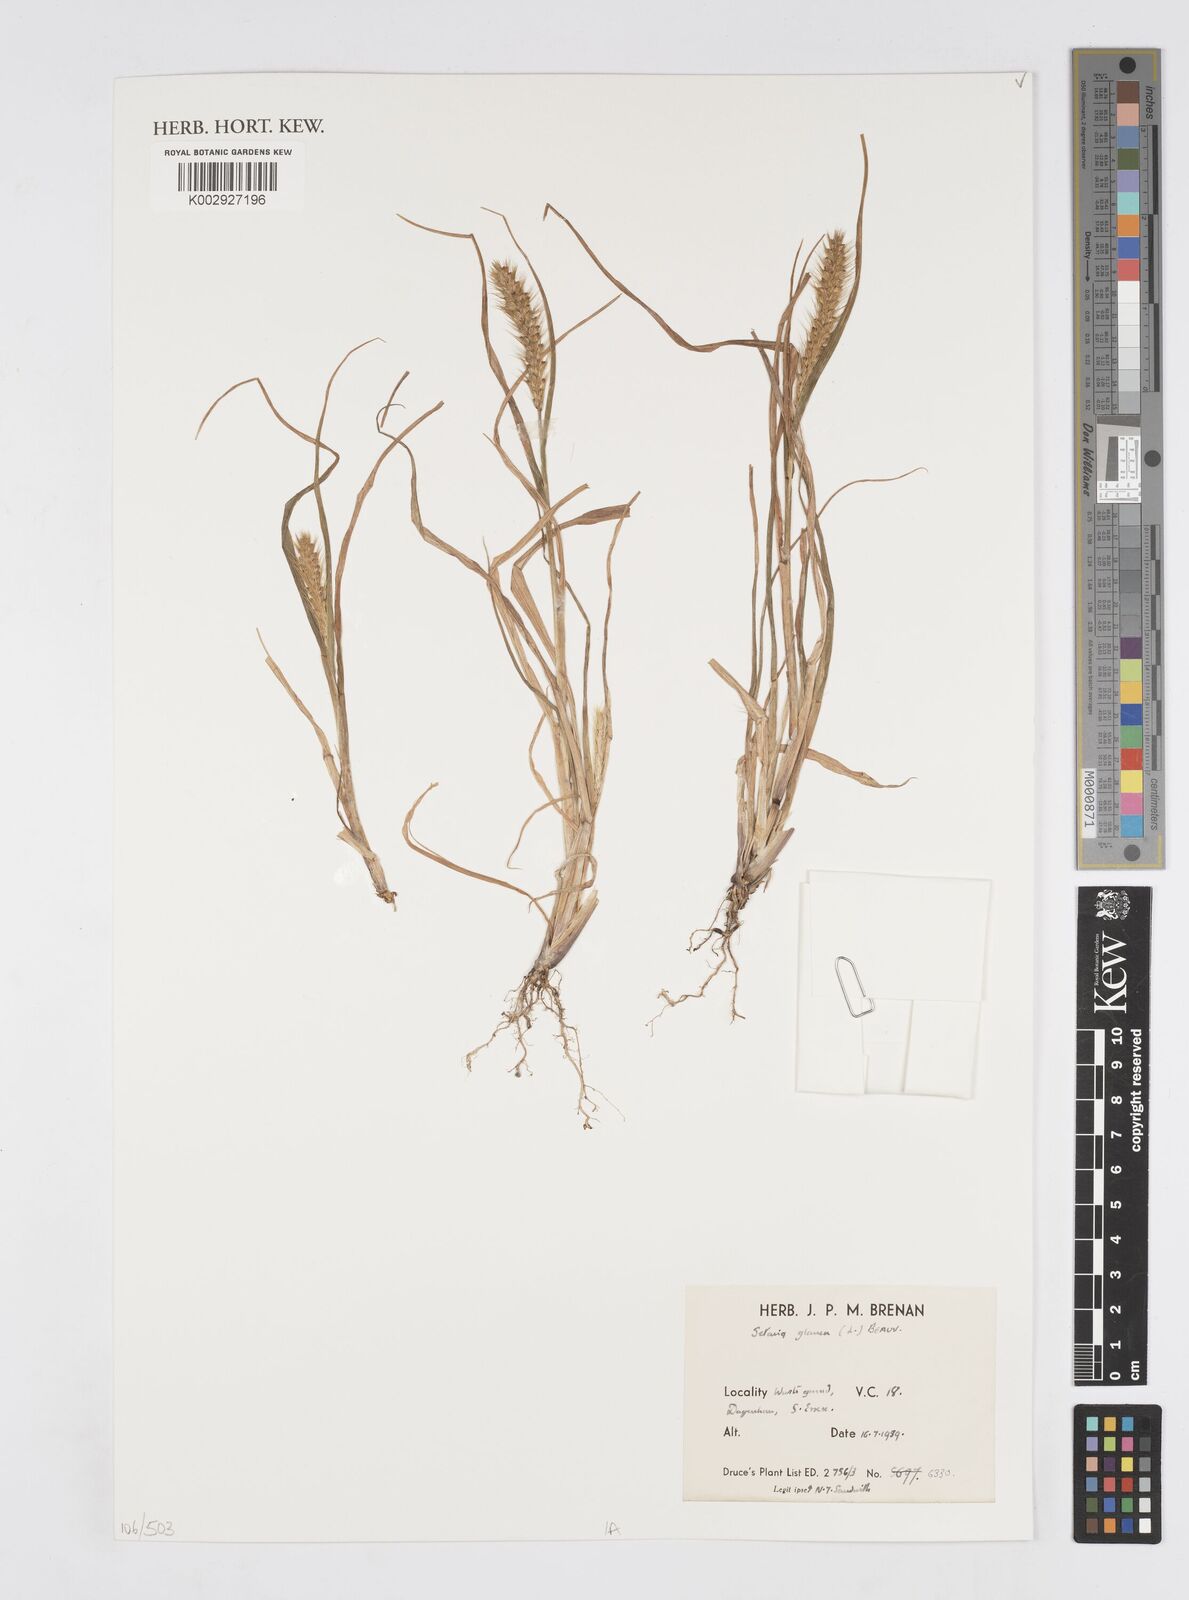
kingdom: Plantae
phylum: Tracheophyta
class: Liliopsida
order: Poales
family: Poaceae
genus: Cenchrus
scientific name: Cenchrus
